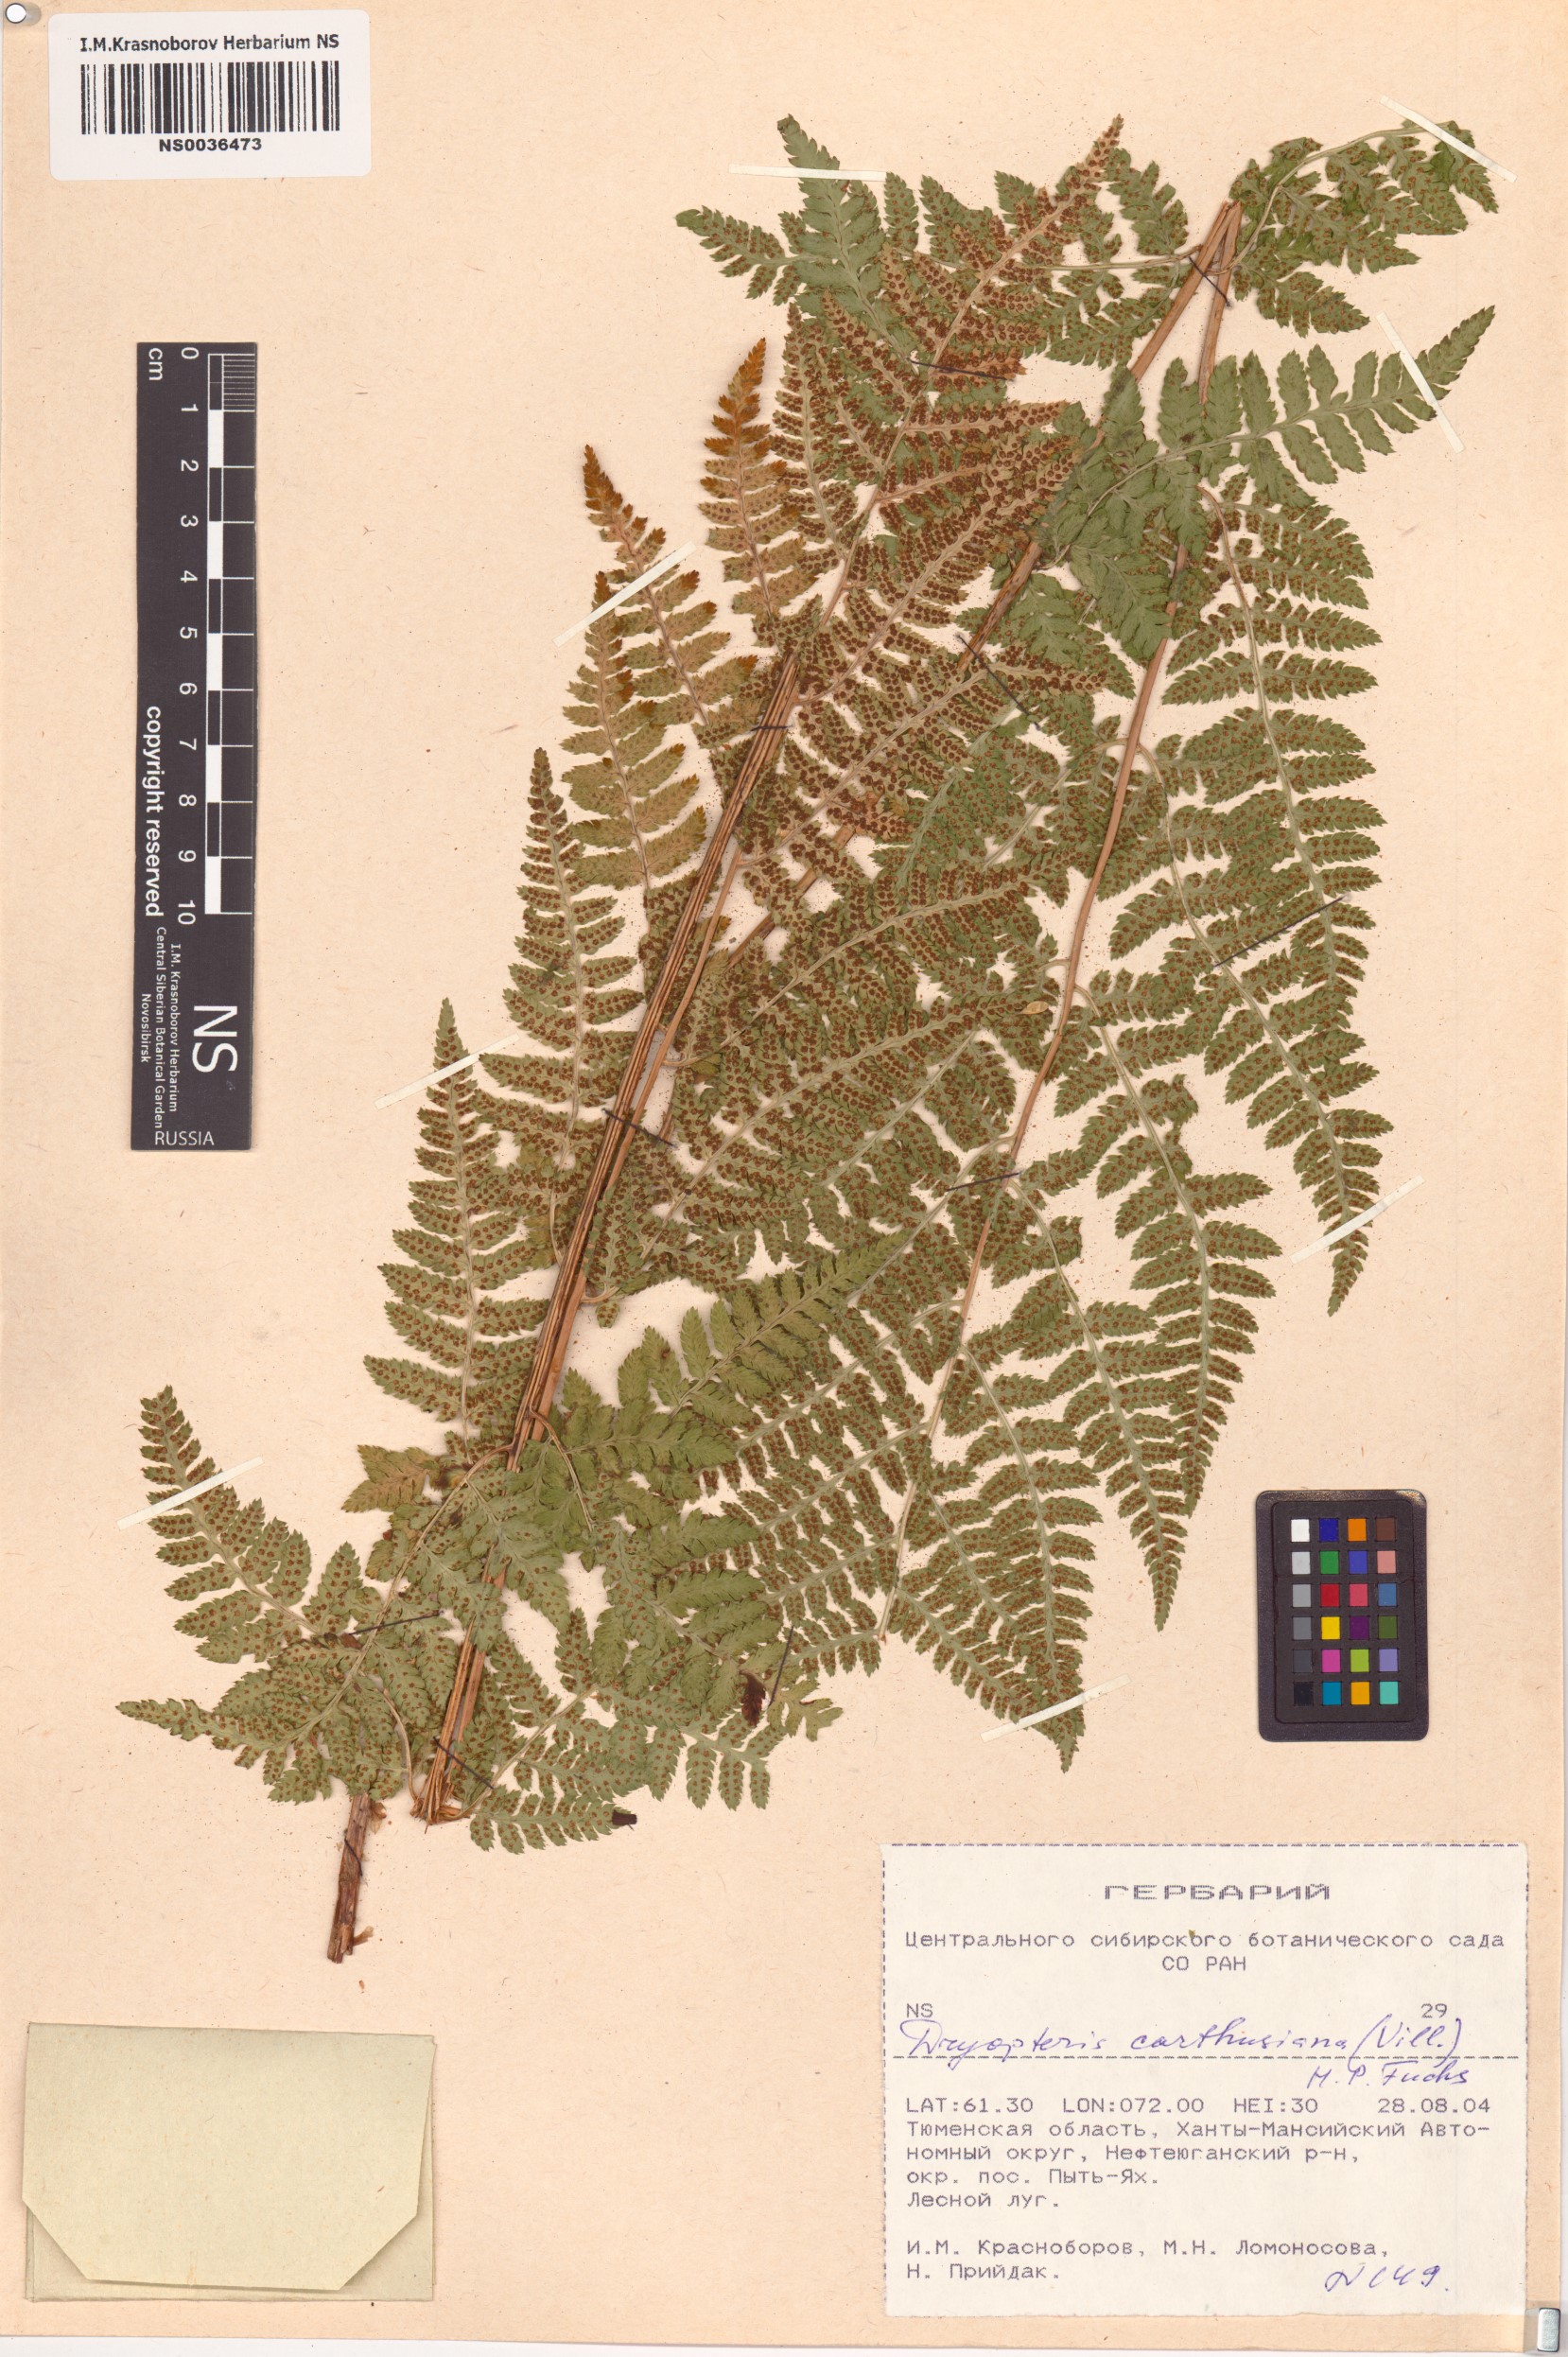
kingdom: Plantae
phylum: Tracheophyta
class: Polypodiopsida
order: Polypodiales
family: Dryopteridaceae
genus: Dryopteris
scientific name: Dryopteris carthusiana
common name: Narrow buckler-fern
